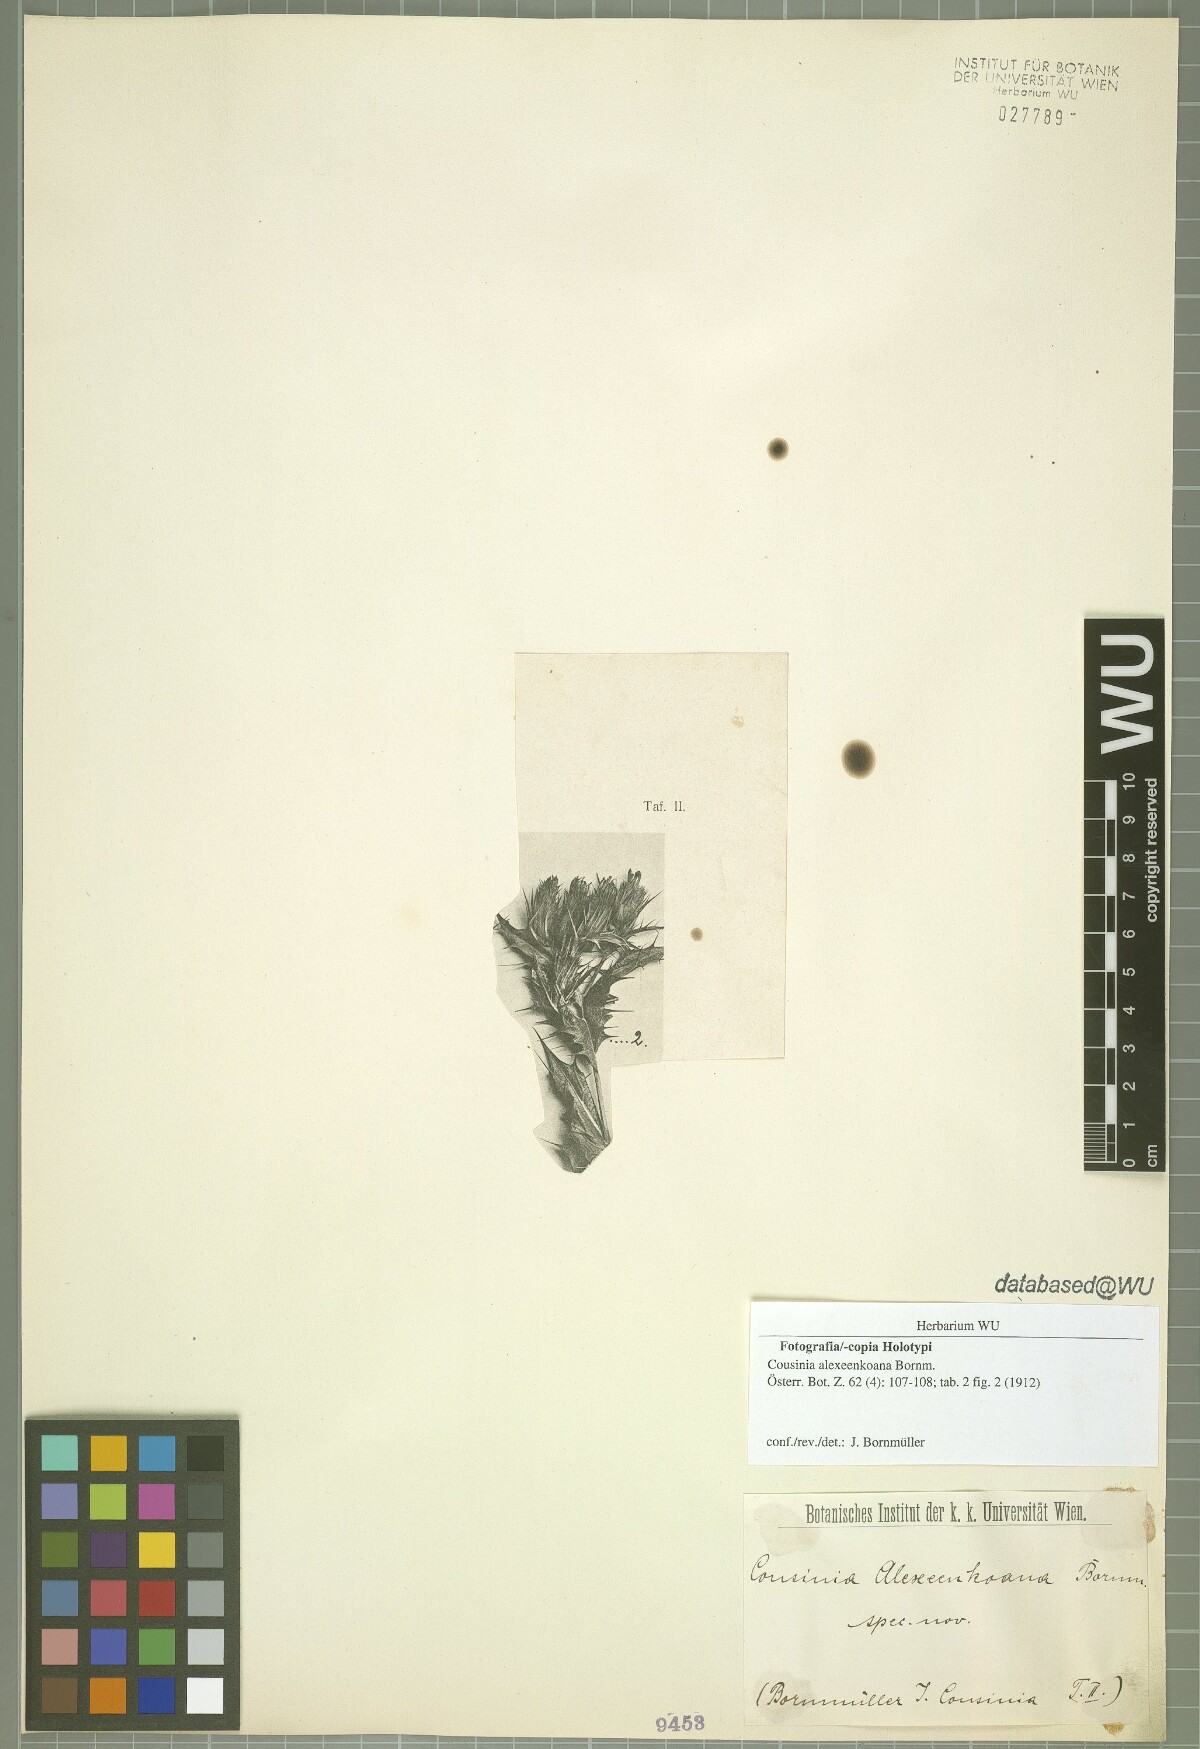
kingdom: Plantae
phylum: Tracheophyta
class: Magnoliopsida
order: Asterales
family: Asteraceae
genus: Cousinia
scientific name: Cousinia alexeenkoana
